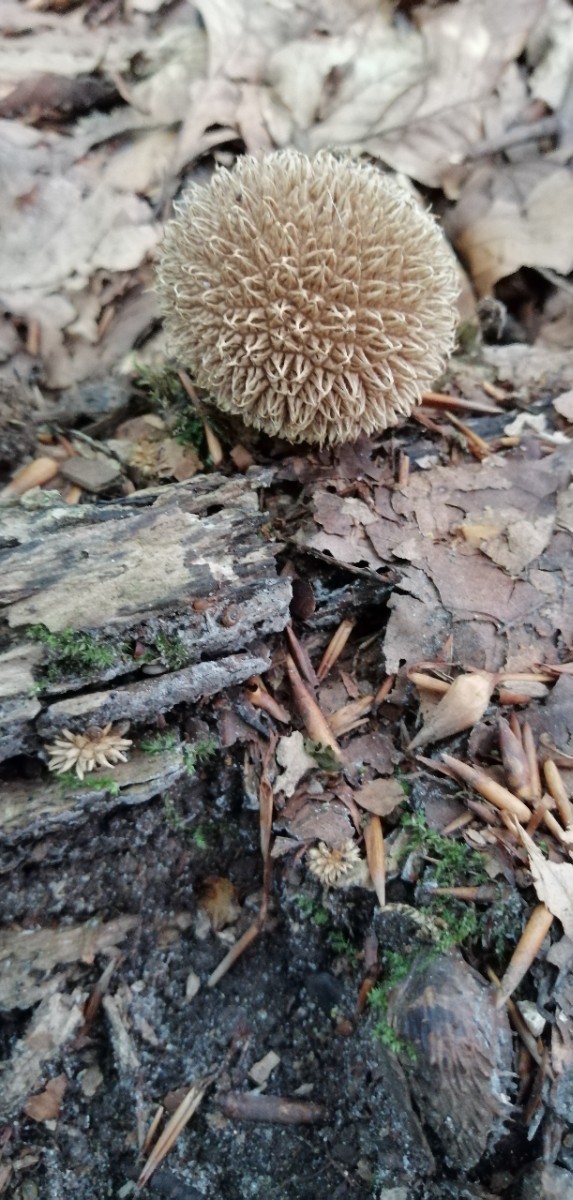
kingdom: Fungi
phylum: Basidiomycota
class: Agaricomycetes
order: Agaricales
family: Lycoperdaceae
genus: Lycoperdon
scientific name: Lycoperdon echinatum
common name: pindsvine-støvbold
